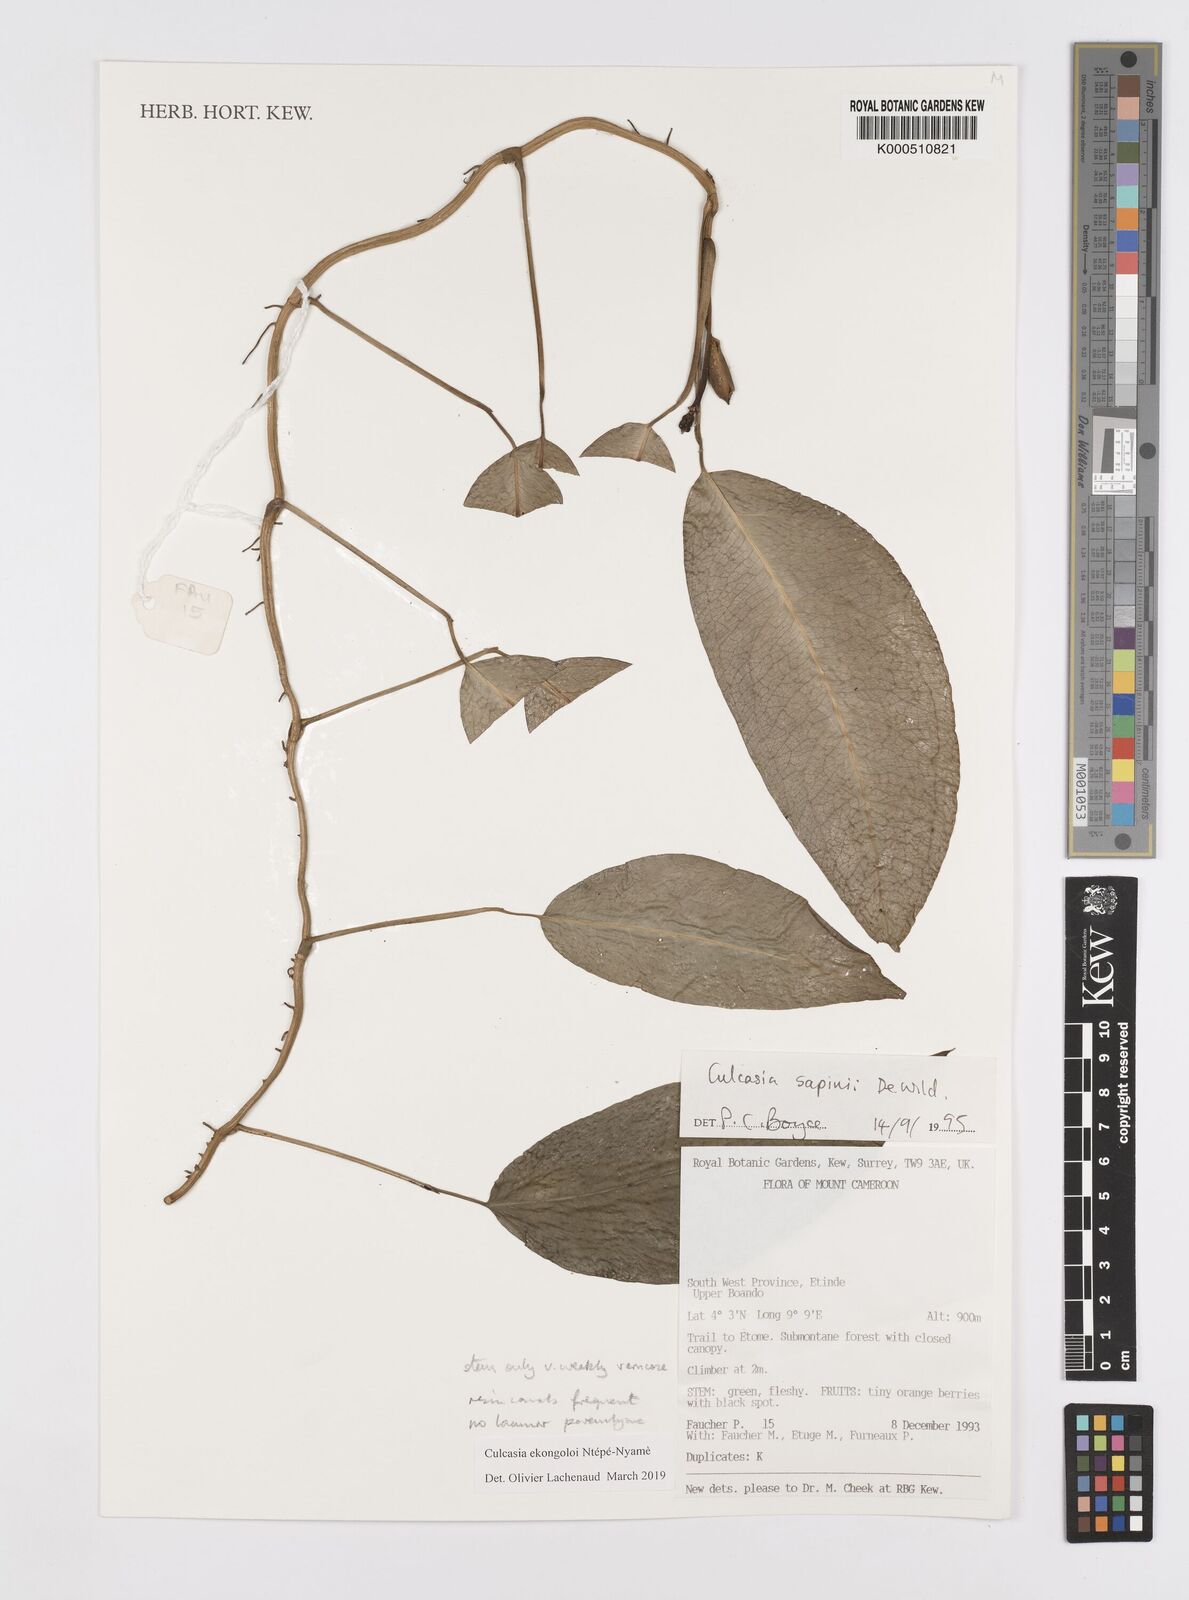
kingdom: Plantae
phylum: Tracheophyta
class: Liliopsida
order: Alismatales
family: Araceae
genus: Culcasia
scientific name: Culcasia
